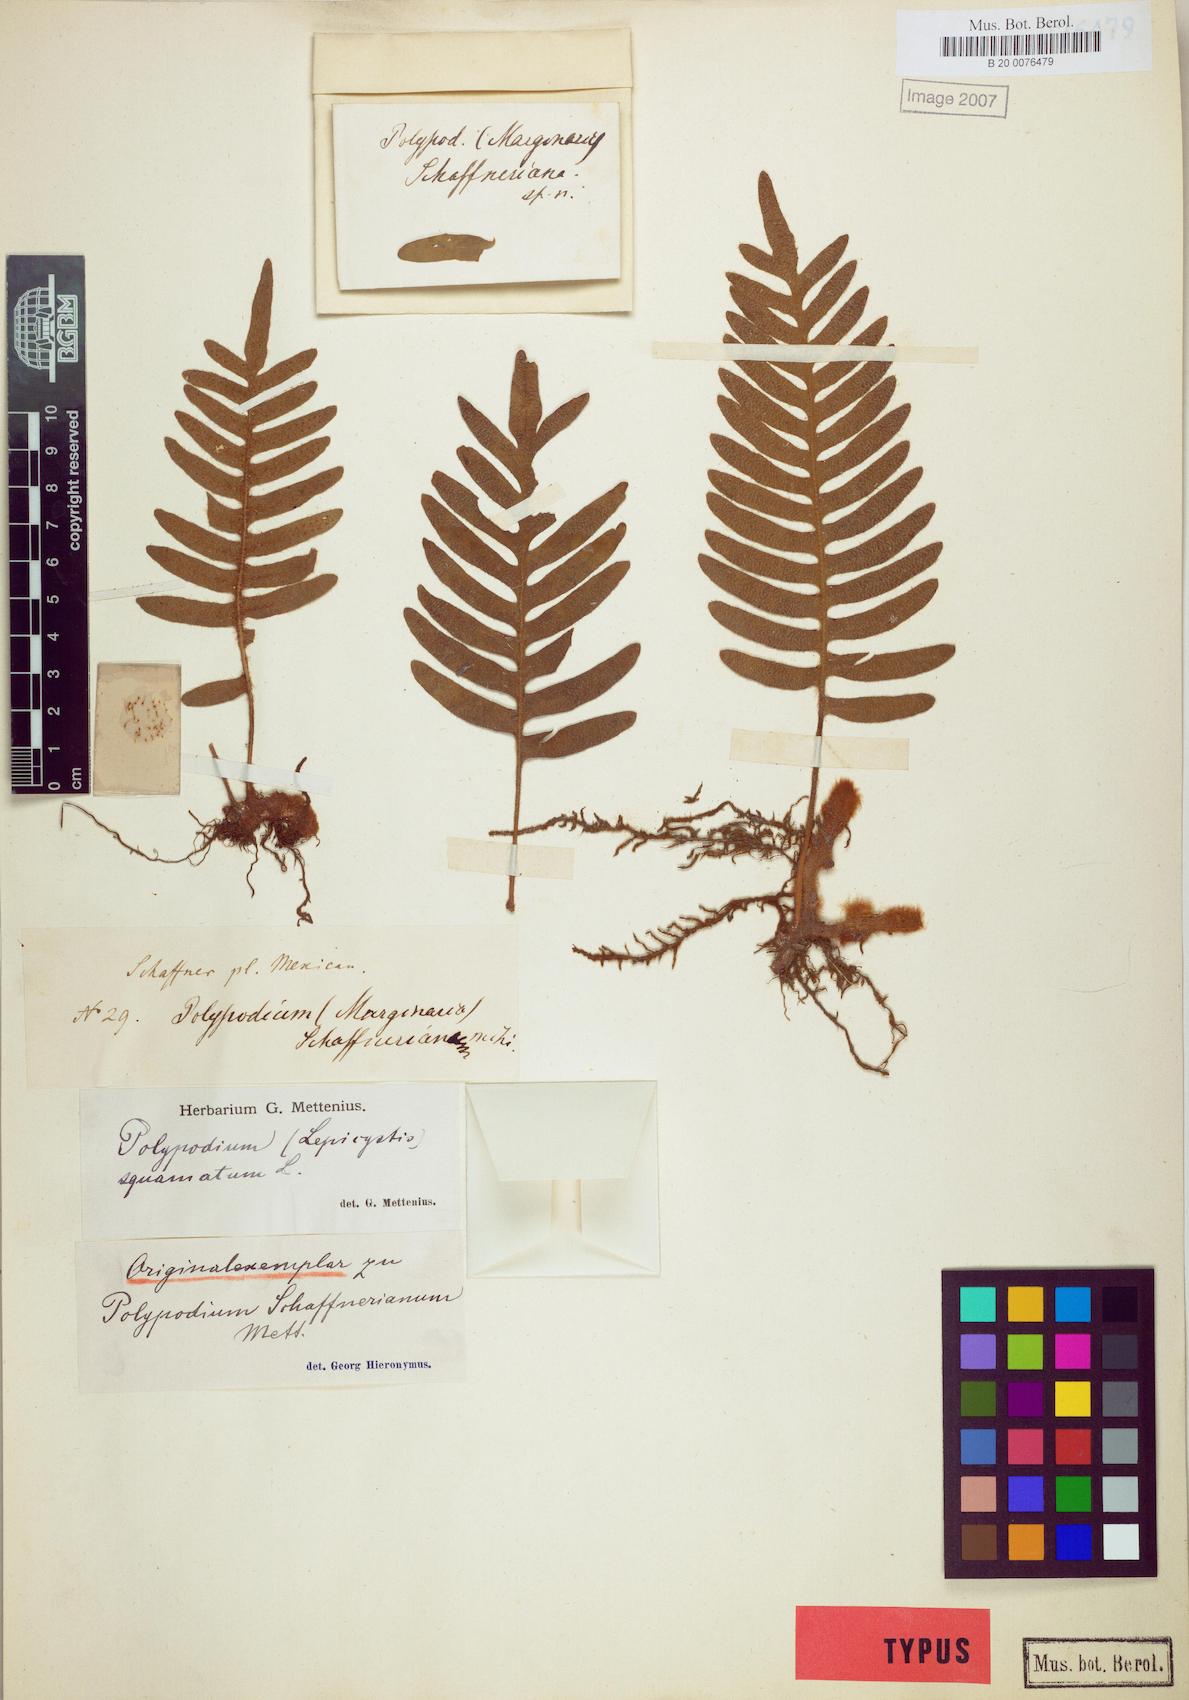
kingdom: Plantae
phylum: Tracheophyta
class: Polypodiopsida
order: Polypodiales
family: Polypodiaceae
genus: Pleopeltis
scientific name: Pleopeltis squamata
